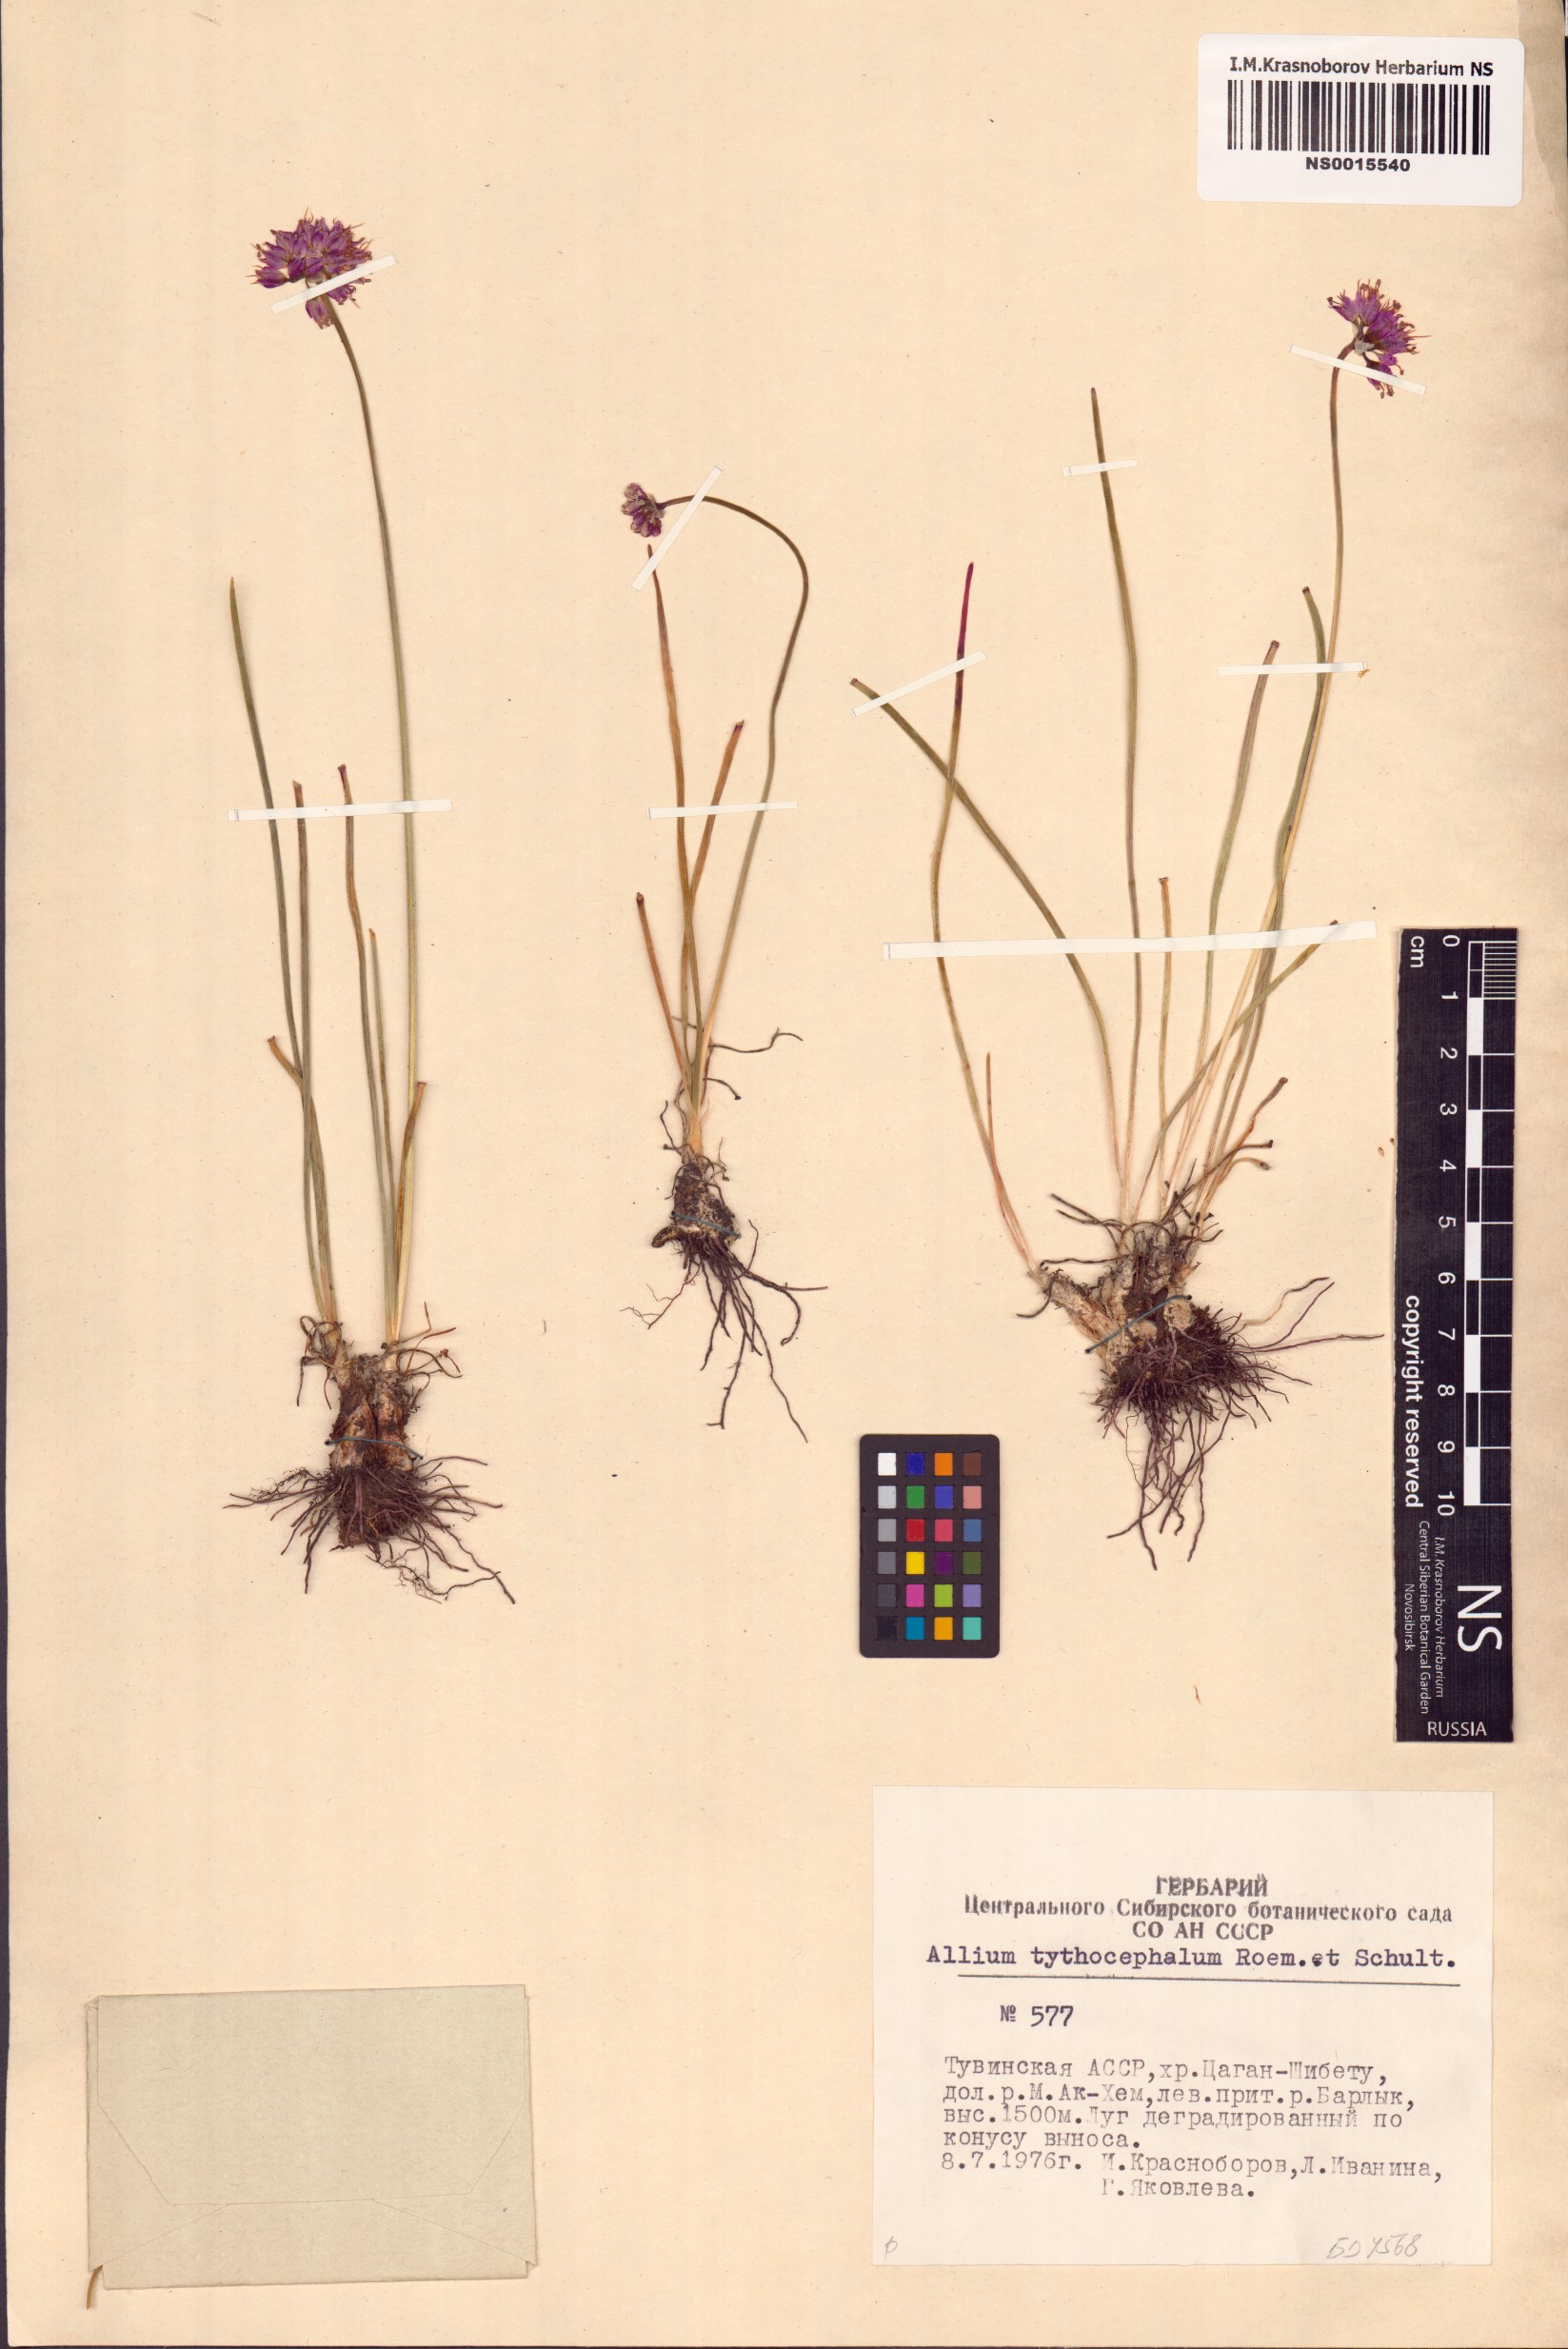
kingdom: Plantae
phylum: Tracheophyta
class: Liliopsida
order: Asparagales
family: Amaryllidaceae
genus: Allium
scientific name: Allium tytthocephalum
